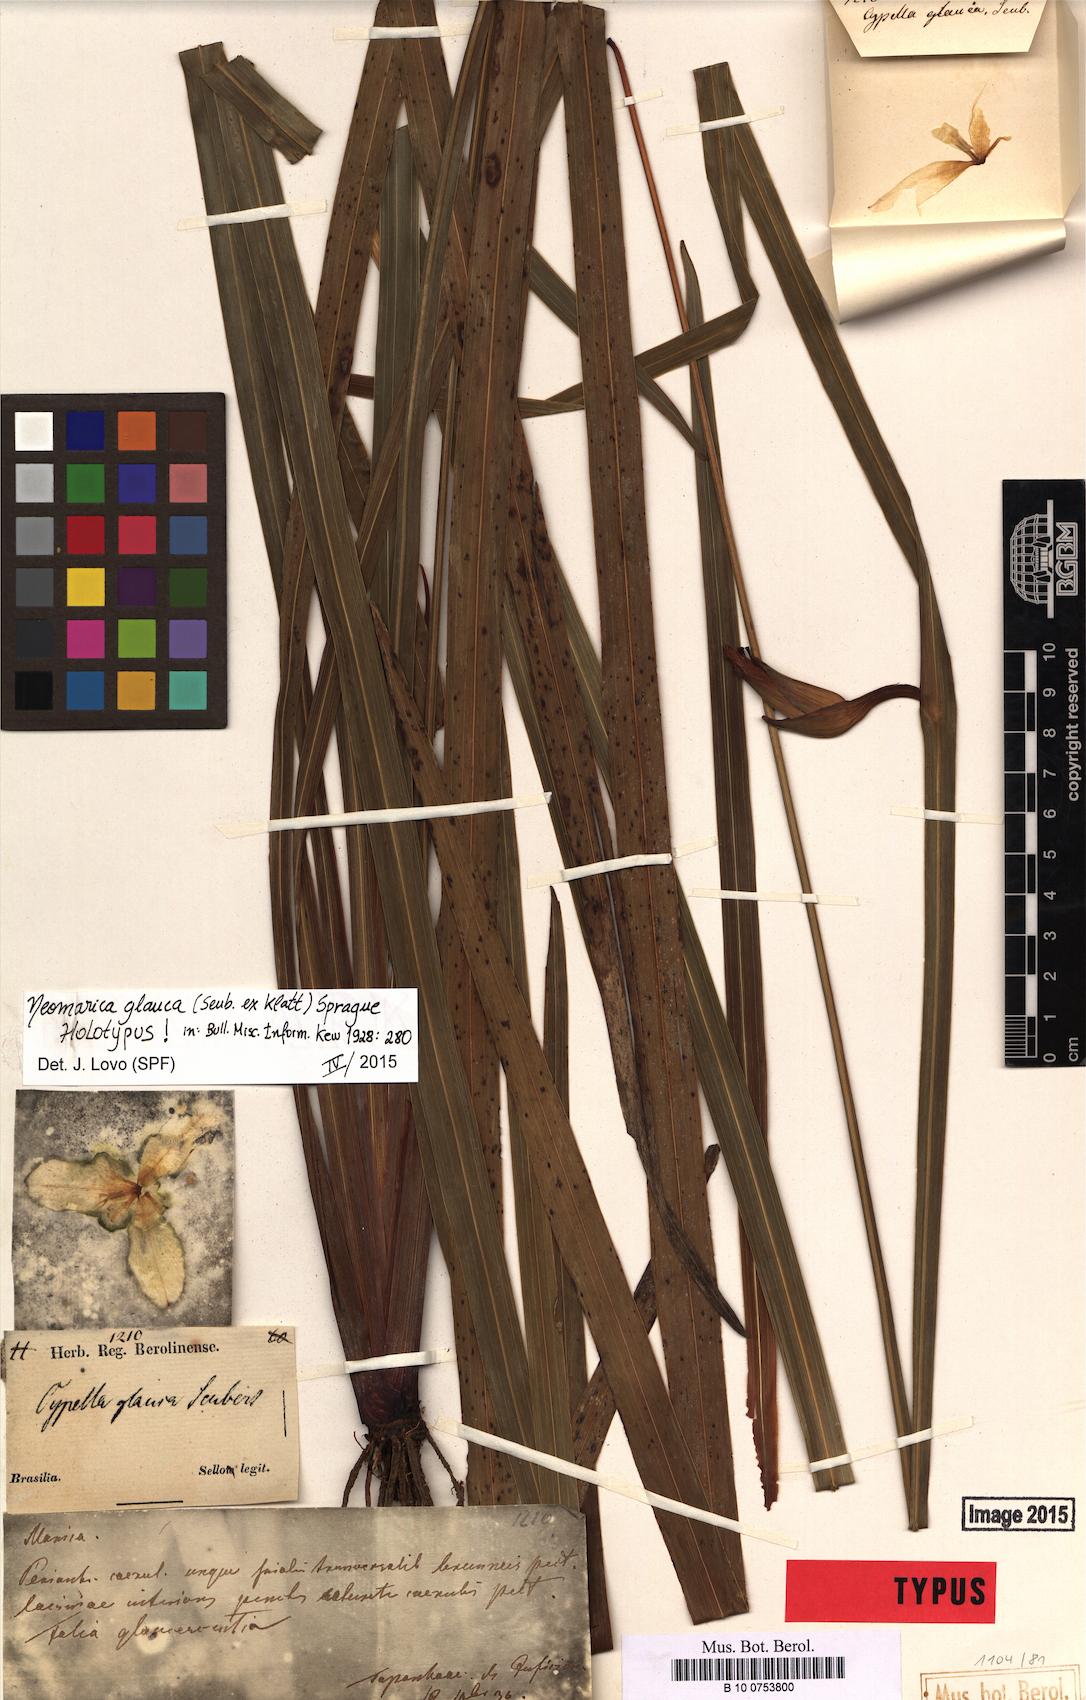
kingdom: Plantae
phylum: Tracheophyta
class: Liliopsida
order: Asparagales
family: Iridaceae
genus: Trimezia
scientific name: Trimezia glauca
